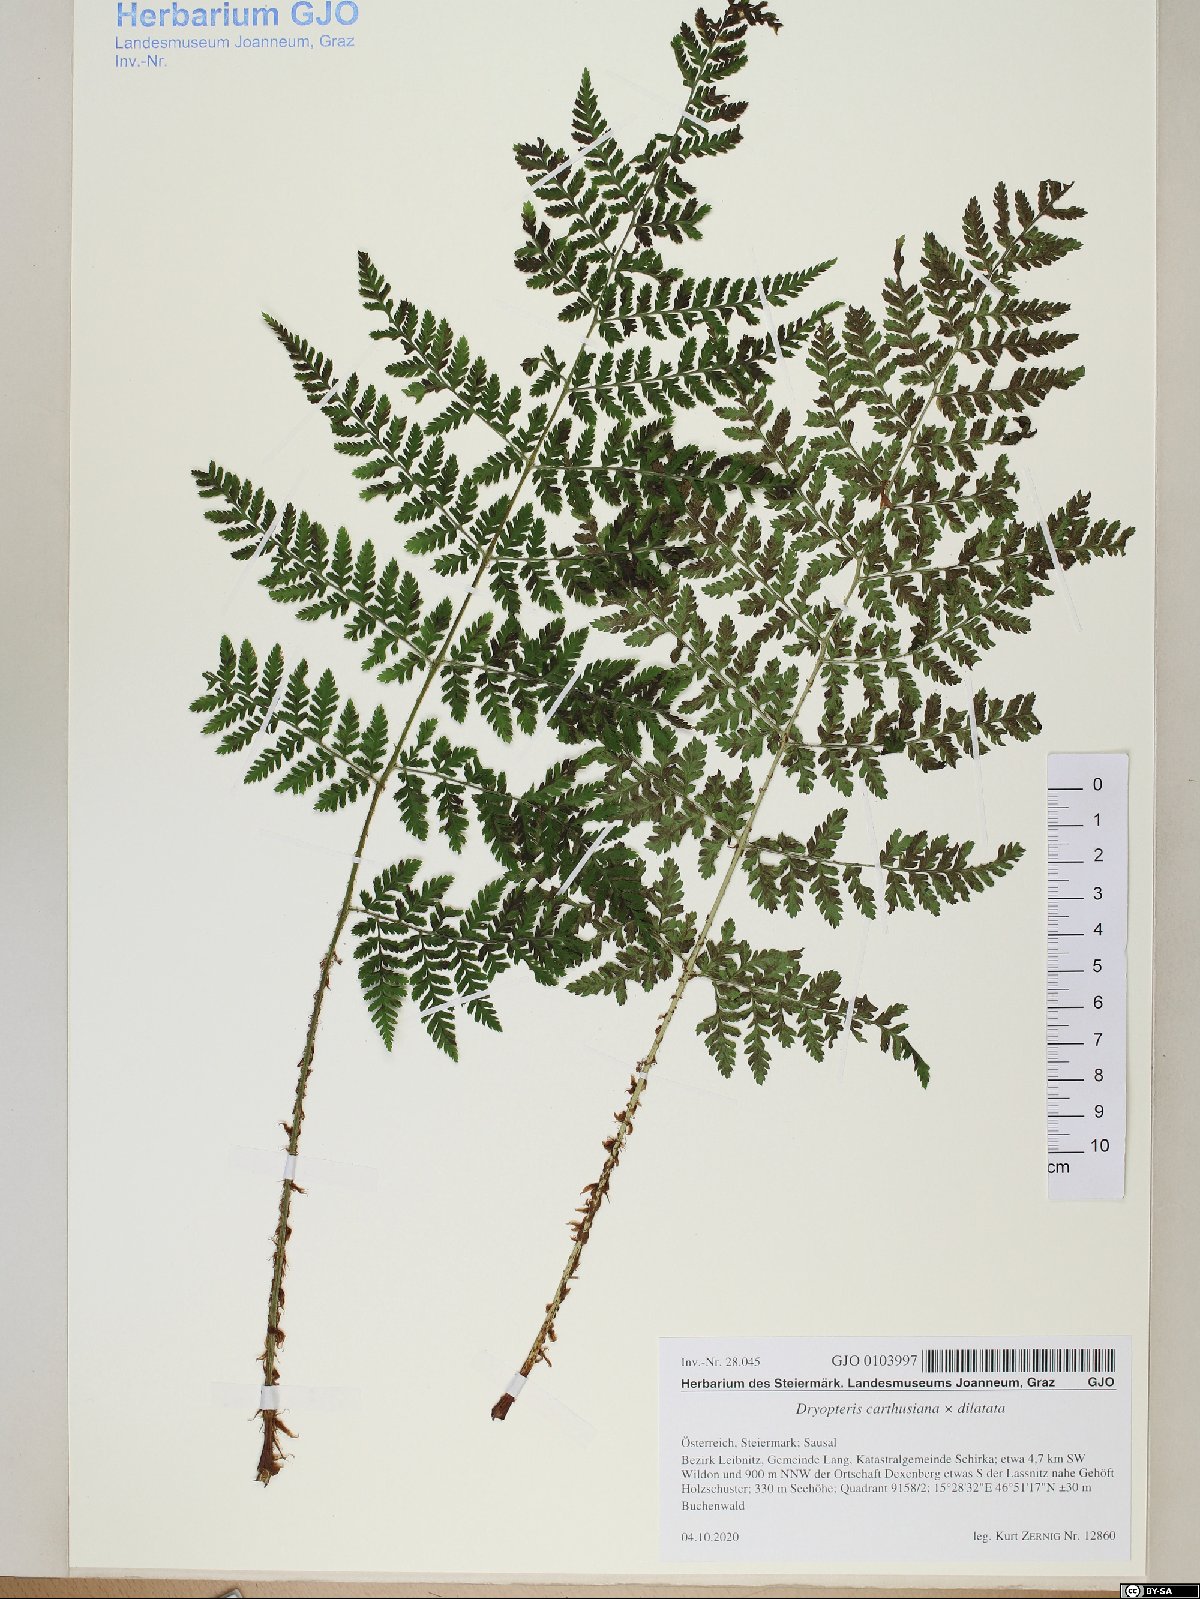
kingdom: Plantae
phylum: Tracheophyta
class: Polypodiopsida
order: Polypodiales
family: Dryopteridaceae
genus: Dryopteris
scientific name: Dryopteris deweveri
